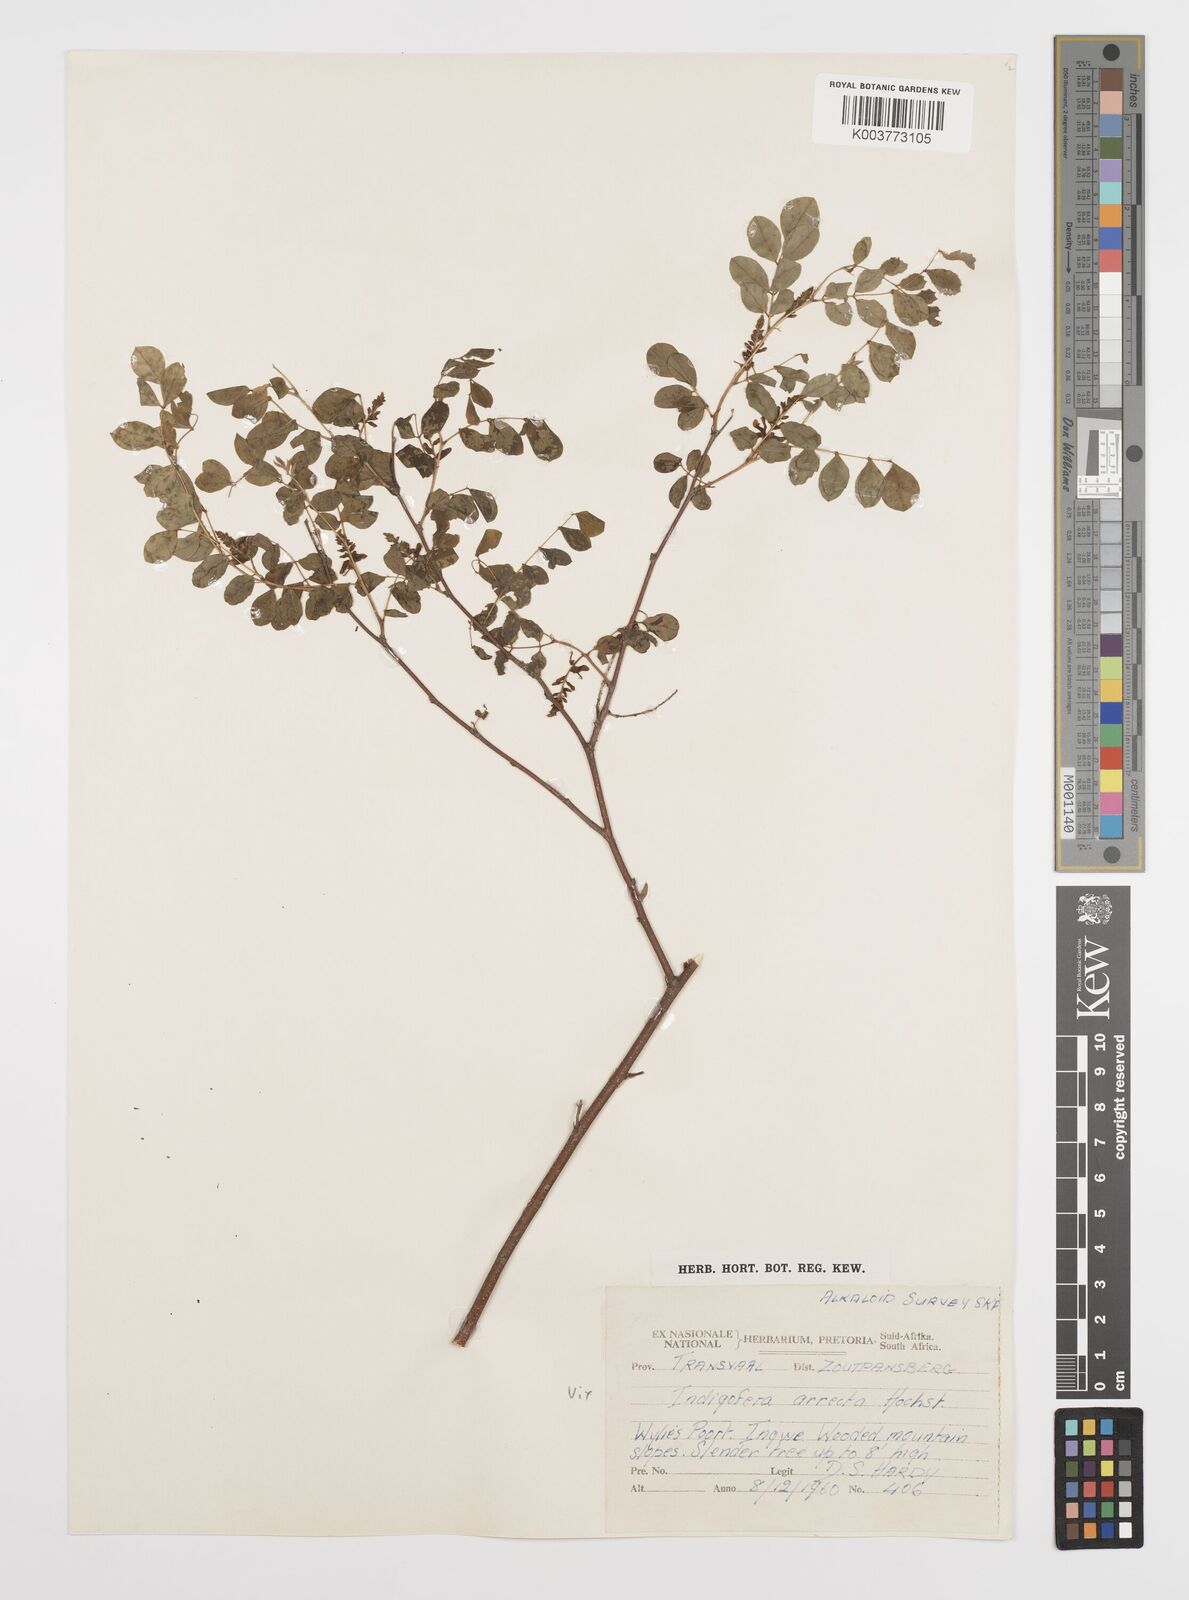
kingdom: Plantae
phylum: Tracheophyta
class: Magnoliopsida
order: Fabales
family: Fabaceae
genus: Indigofera
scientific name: Indigofera subcorymbosa
